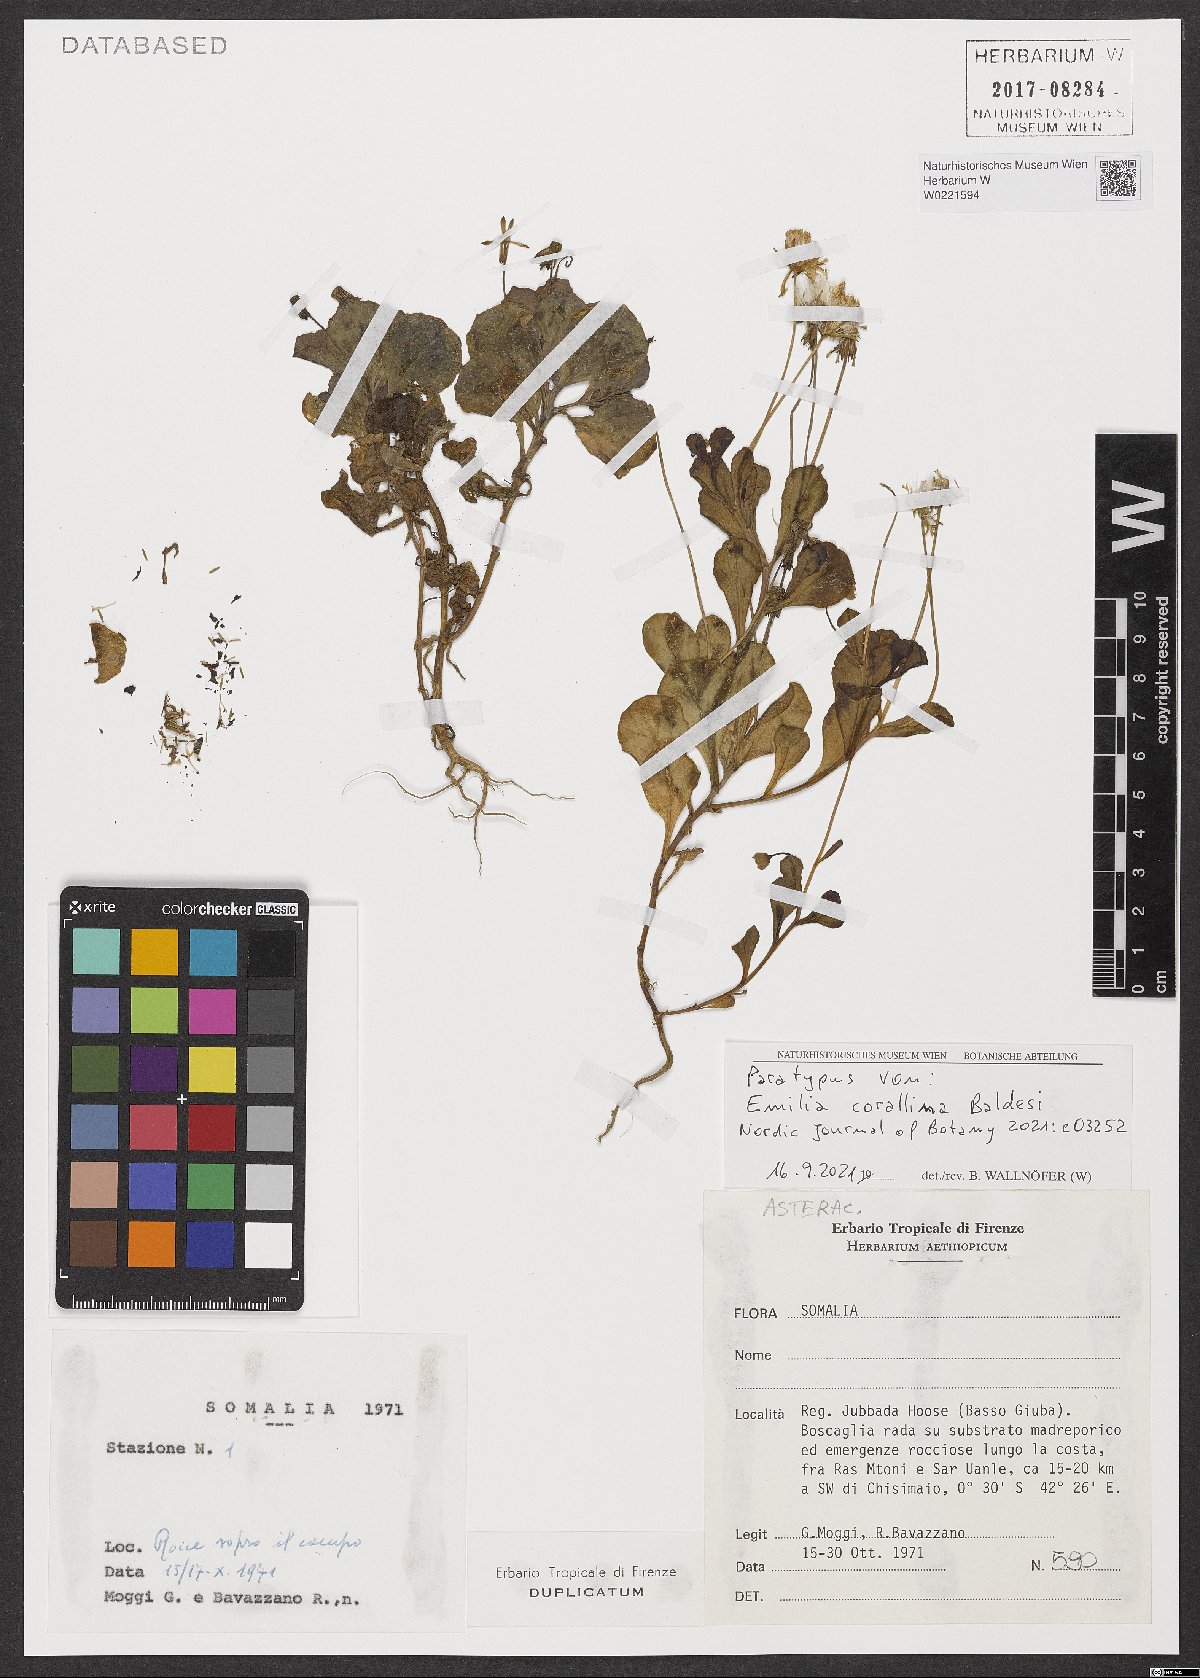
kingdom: Plantae
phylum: Tracheophyta
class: Magnoliopsida
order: Asterales
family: Asteraceae
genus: Emilia
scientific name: Emilia corallina
